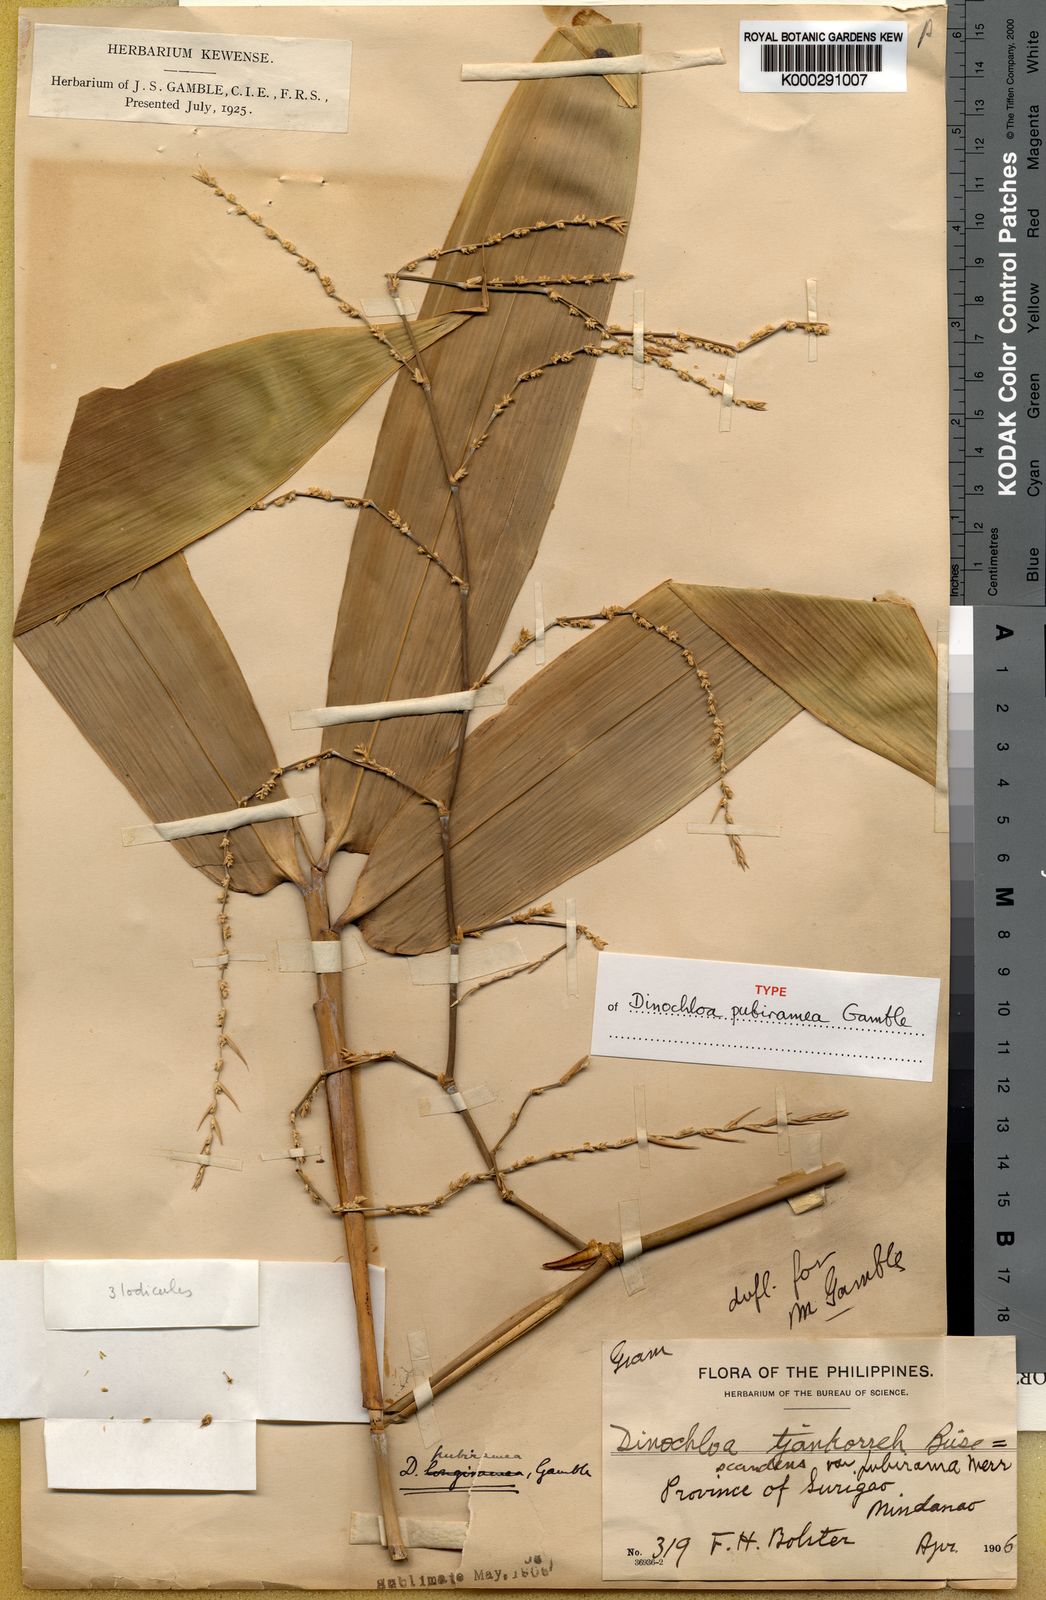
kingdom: Plantae
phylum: Tracheophyta
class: Liliopsida
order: Poales
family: Poaceae
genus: Dinochloa
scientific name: Dinochloa pubiramea
